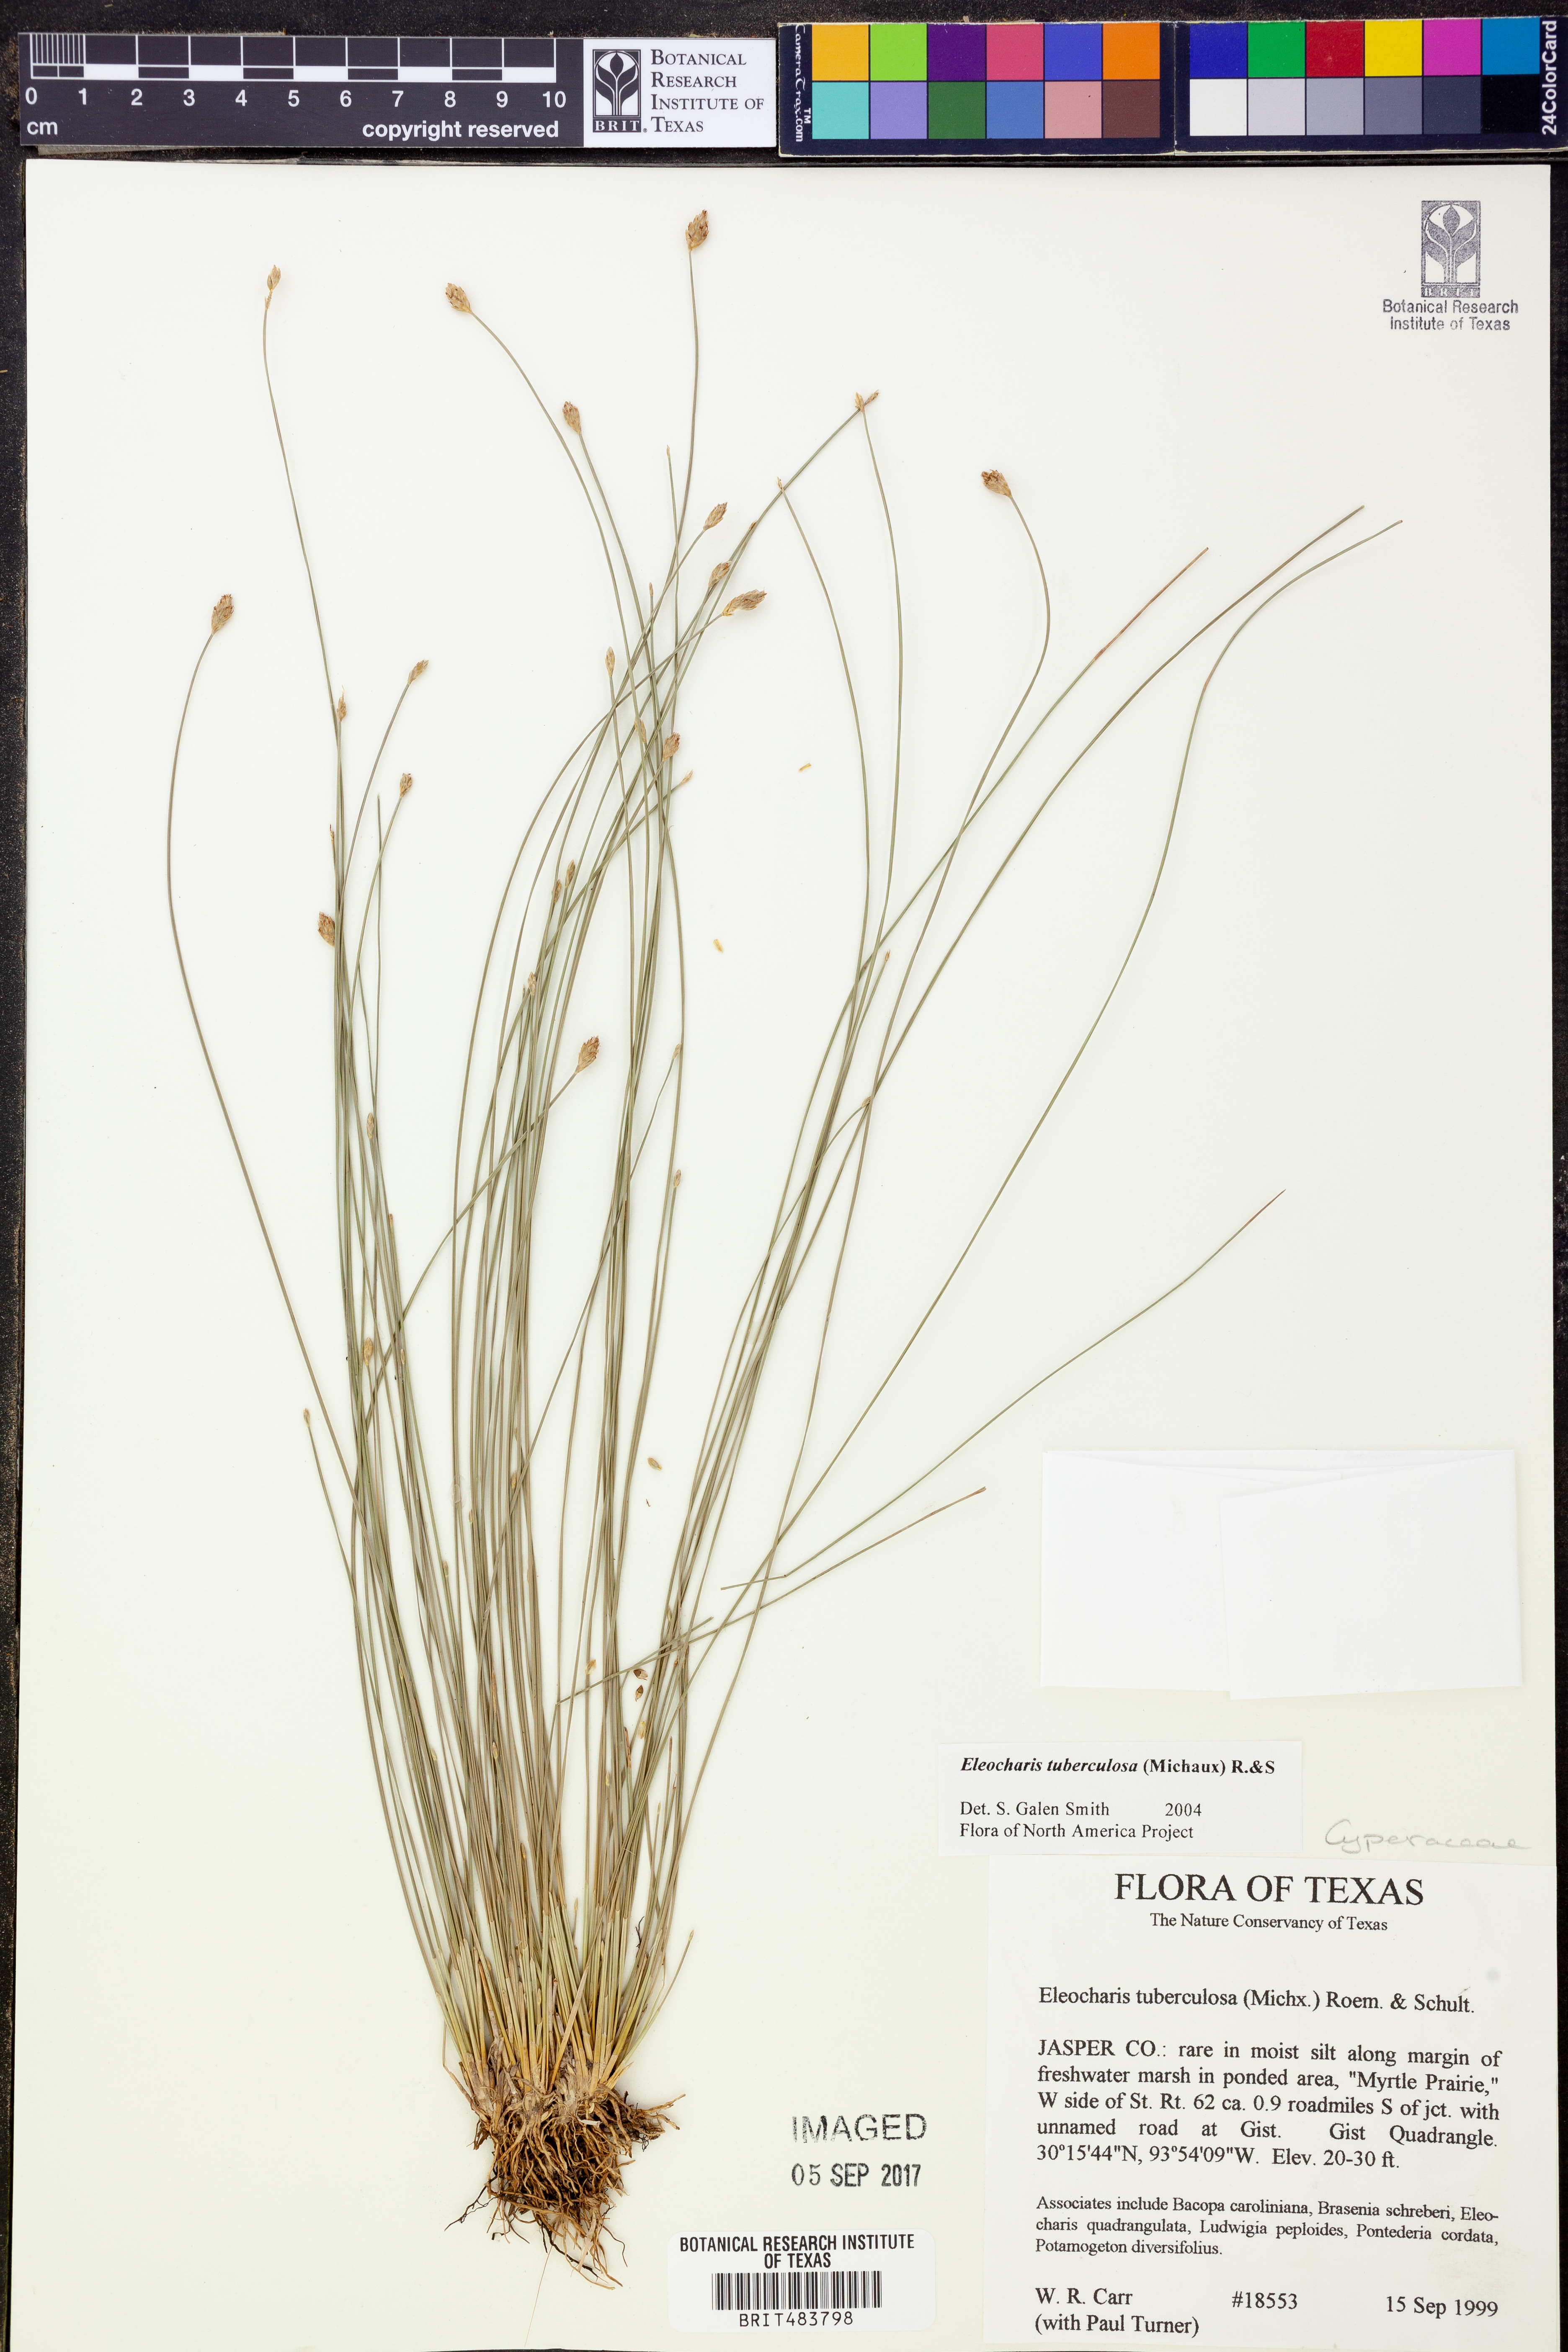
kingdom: Plantae
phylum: Tracheophyta
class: Liliopsida
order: Poales
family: Cyperaceae
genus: Eleocharis
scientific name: Eleocharis tuberculosa
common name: Cone-cup spikerush
